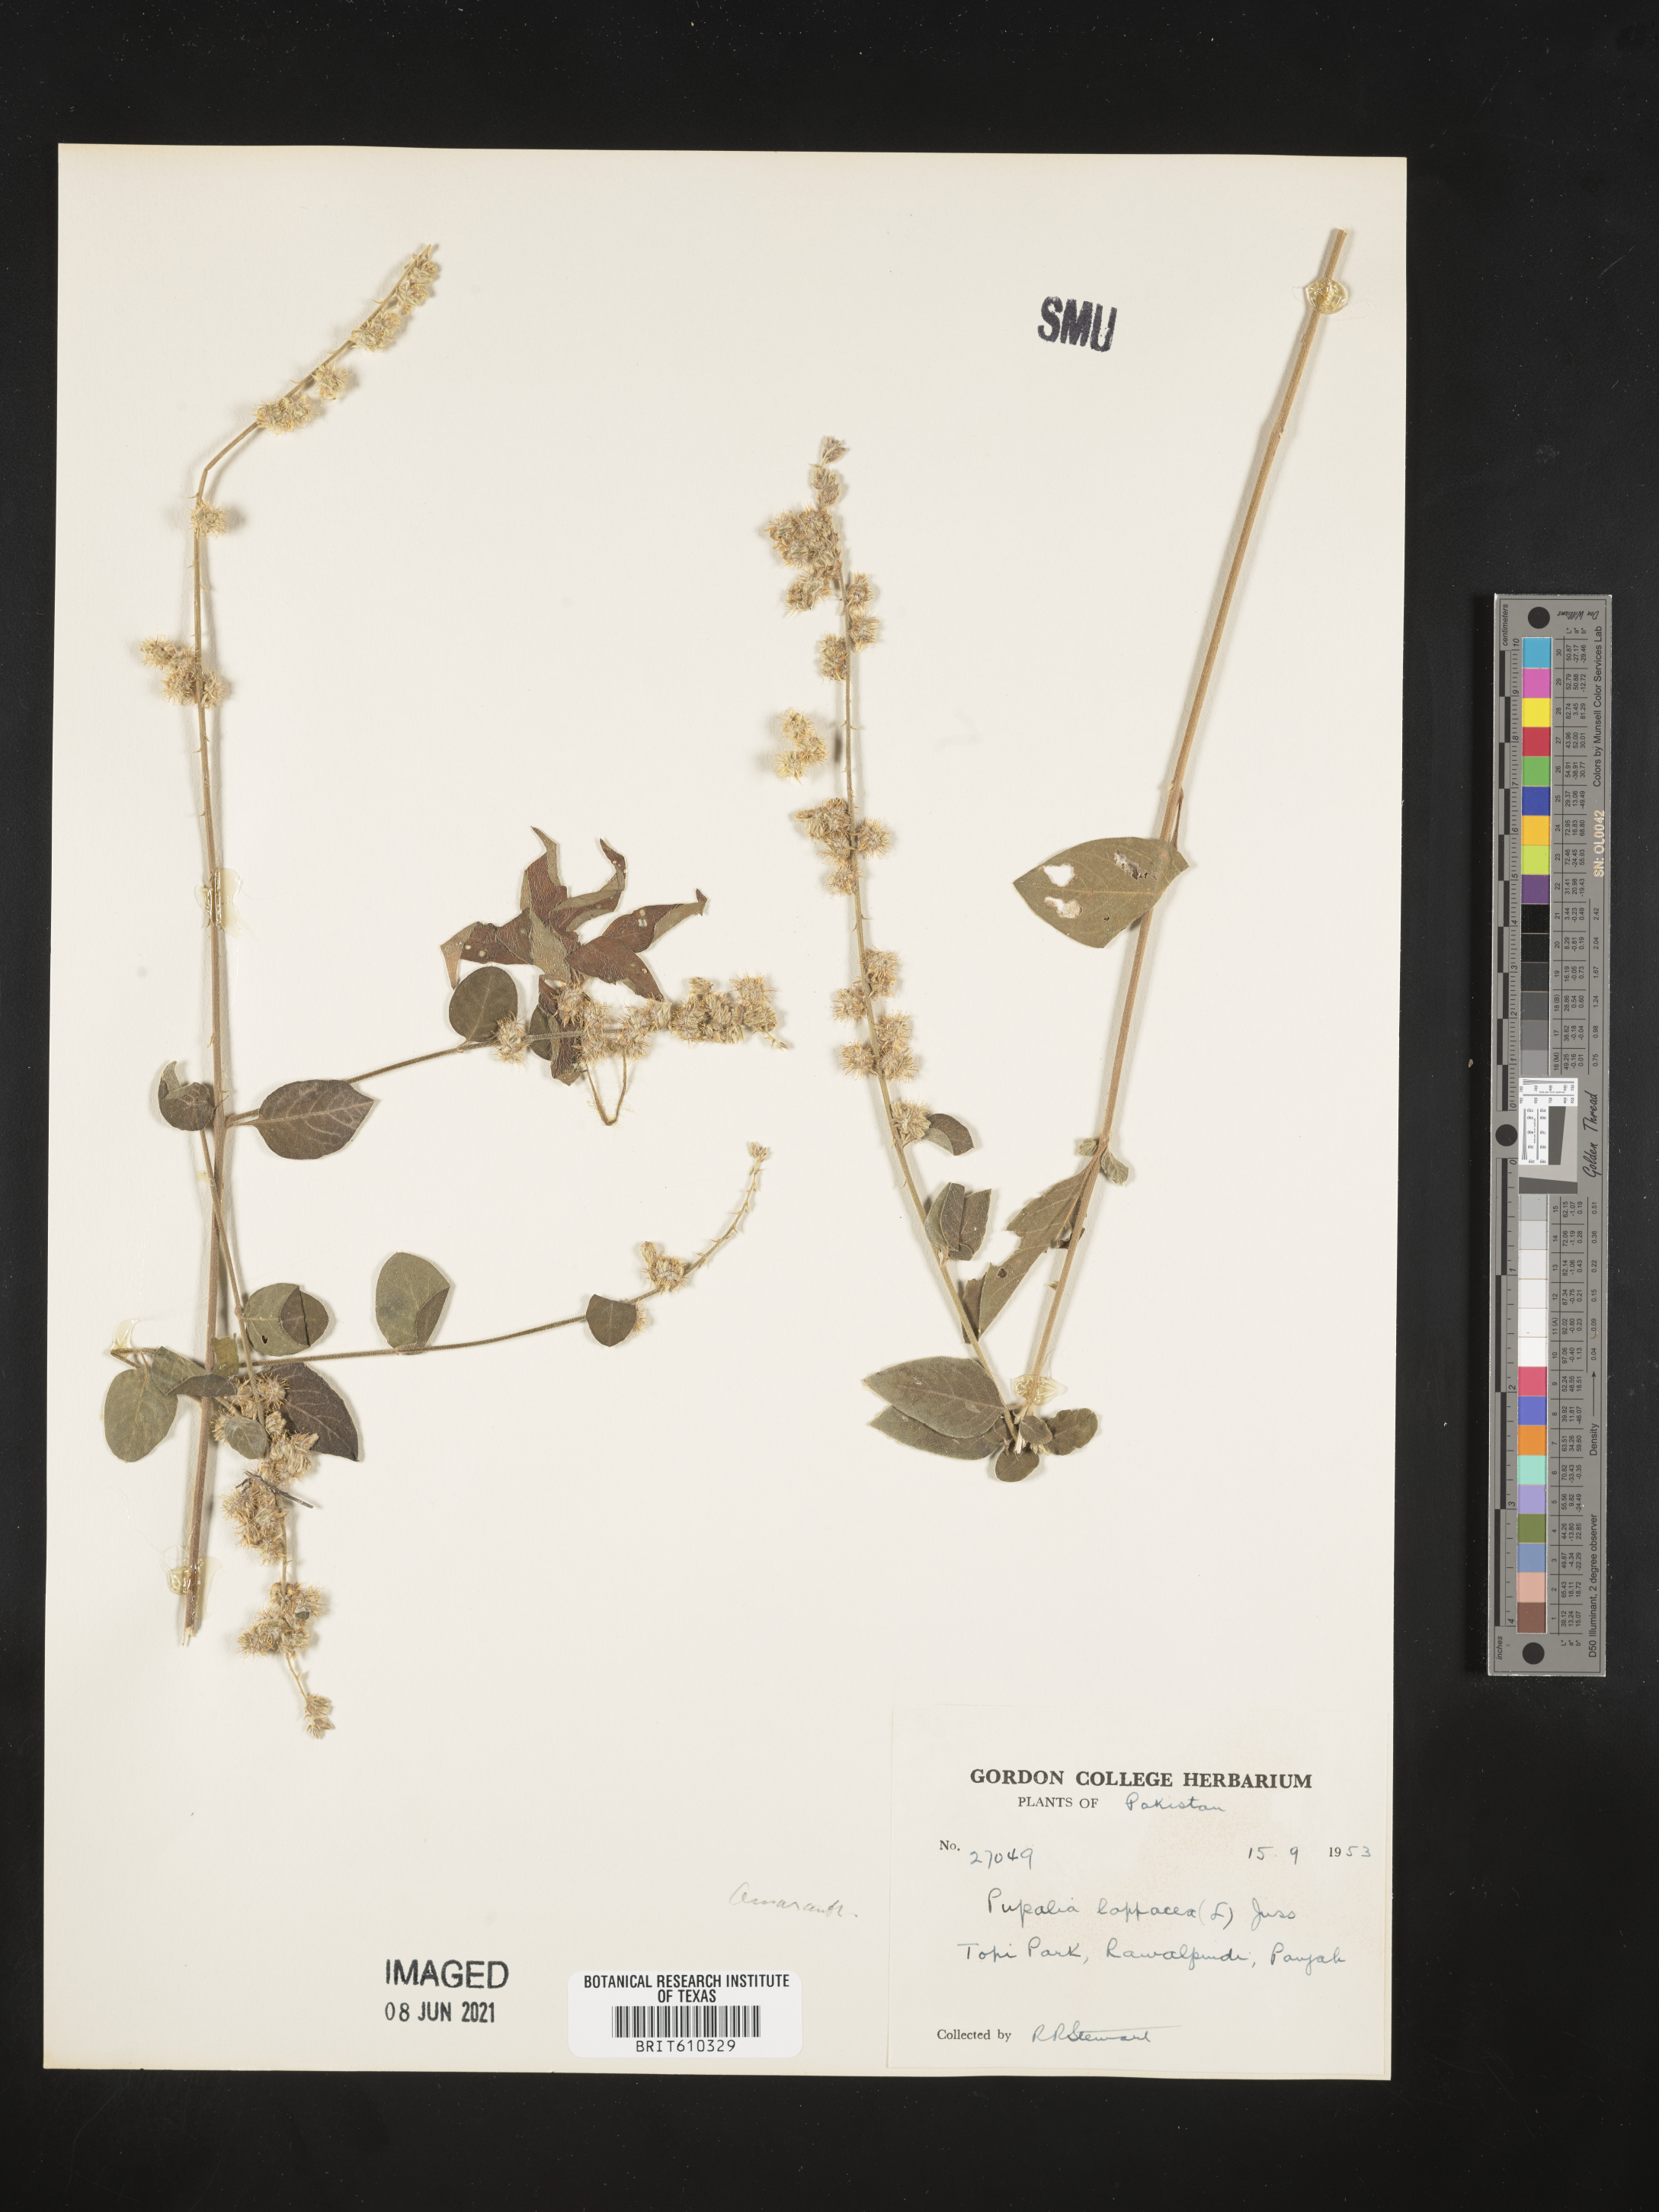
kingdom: Plantae
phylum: Tracheophyta
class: Magnoliopsida
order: Caryophyllales
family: Amaranthaceae
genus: Pupalia
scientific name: Pupalia lappacea
